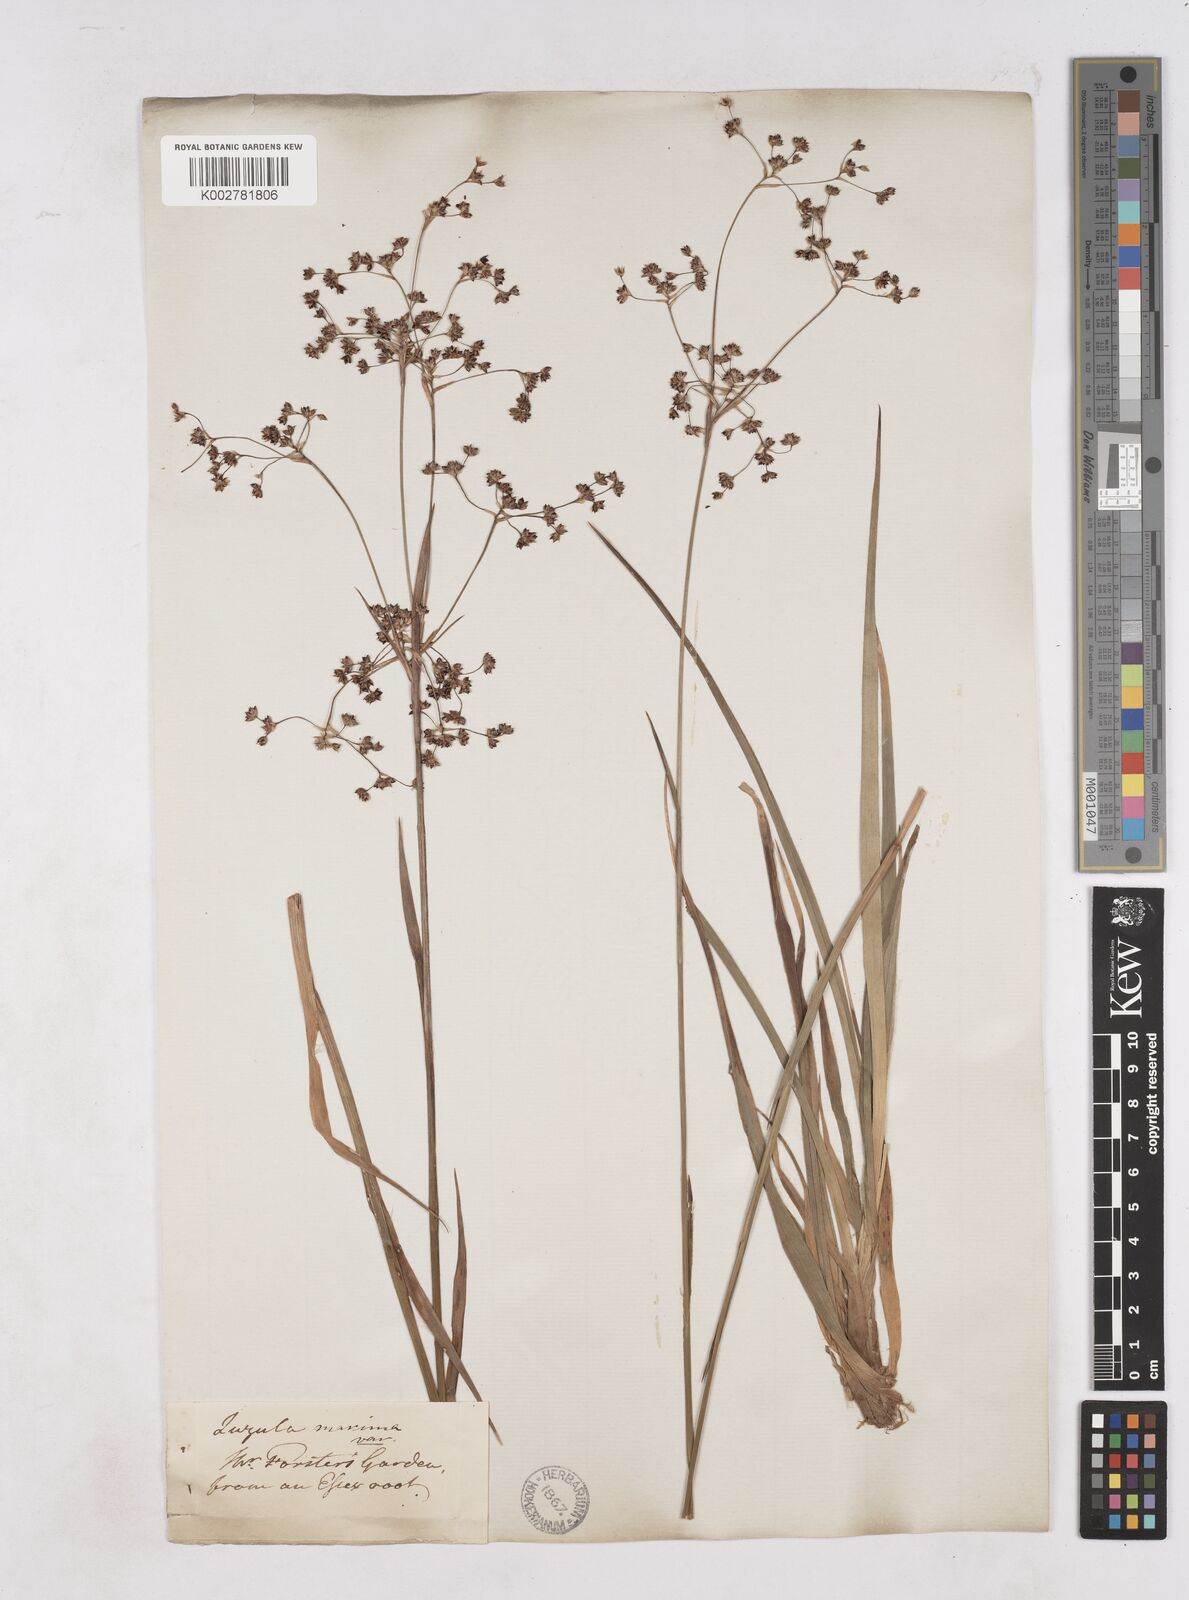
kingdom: Plantae
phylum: Tracheophyta
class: Liliopsida
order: Poales
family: Juncaceae
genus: Luzula
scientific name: Luzula sylvatica
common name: Great wood-rush
